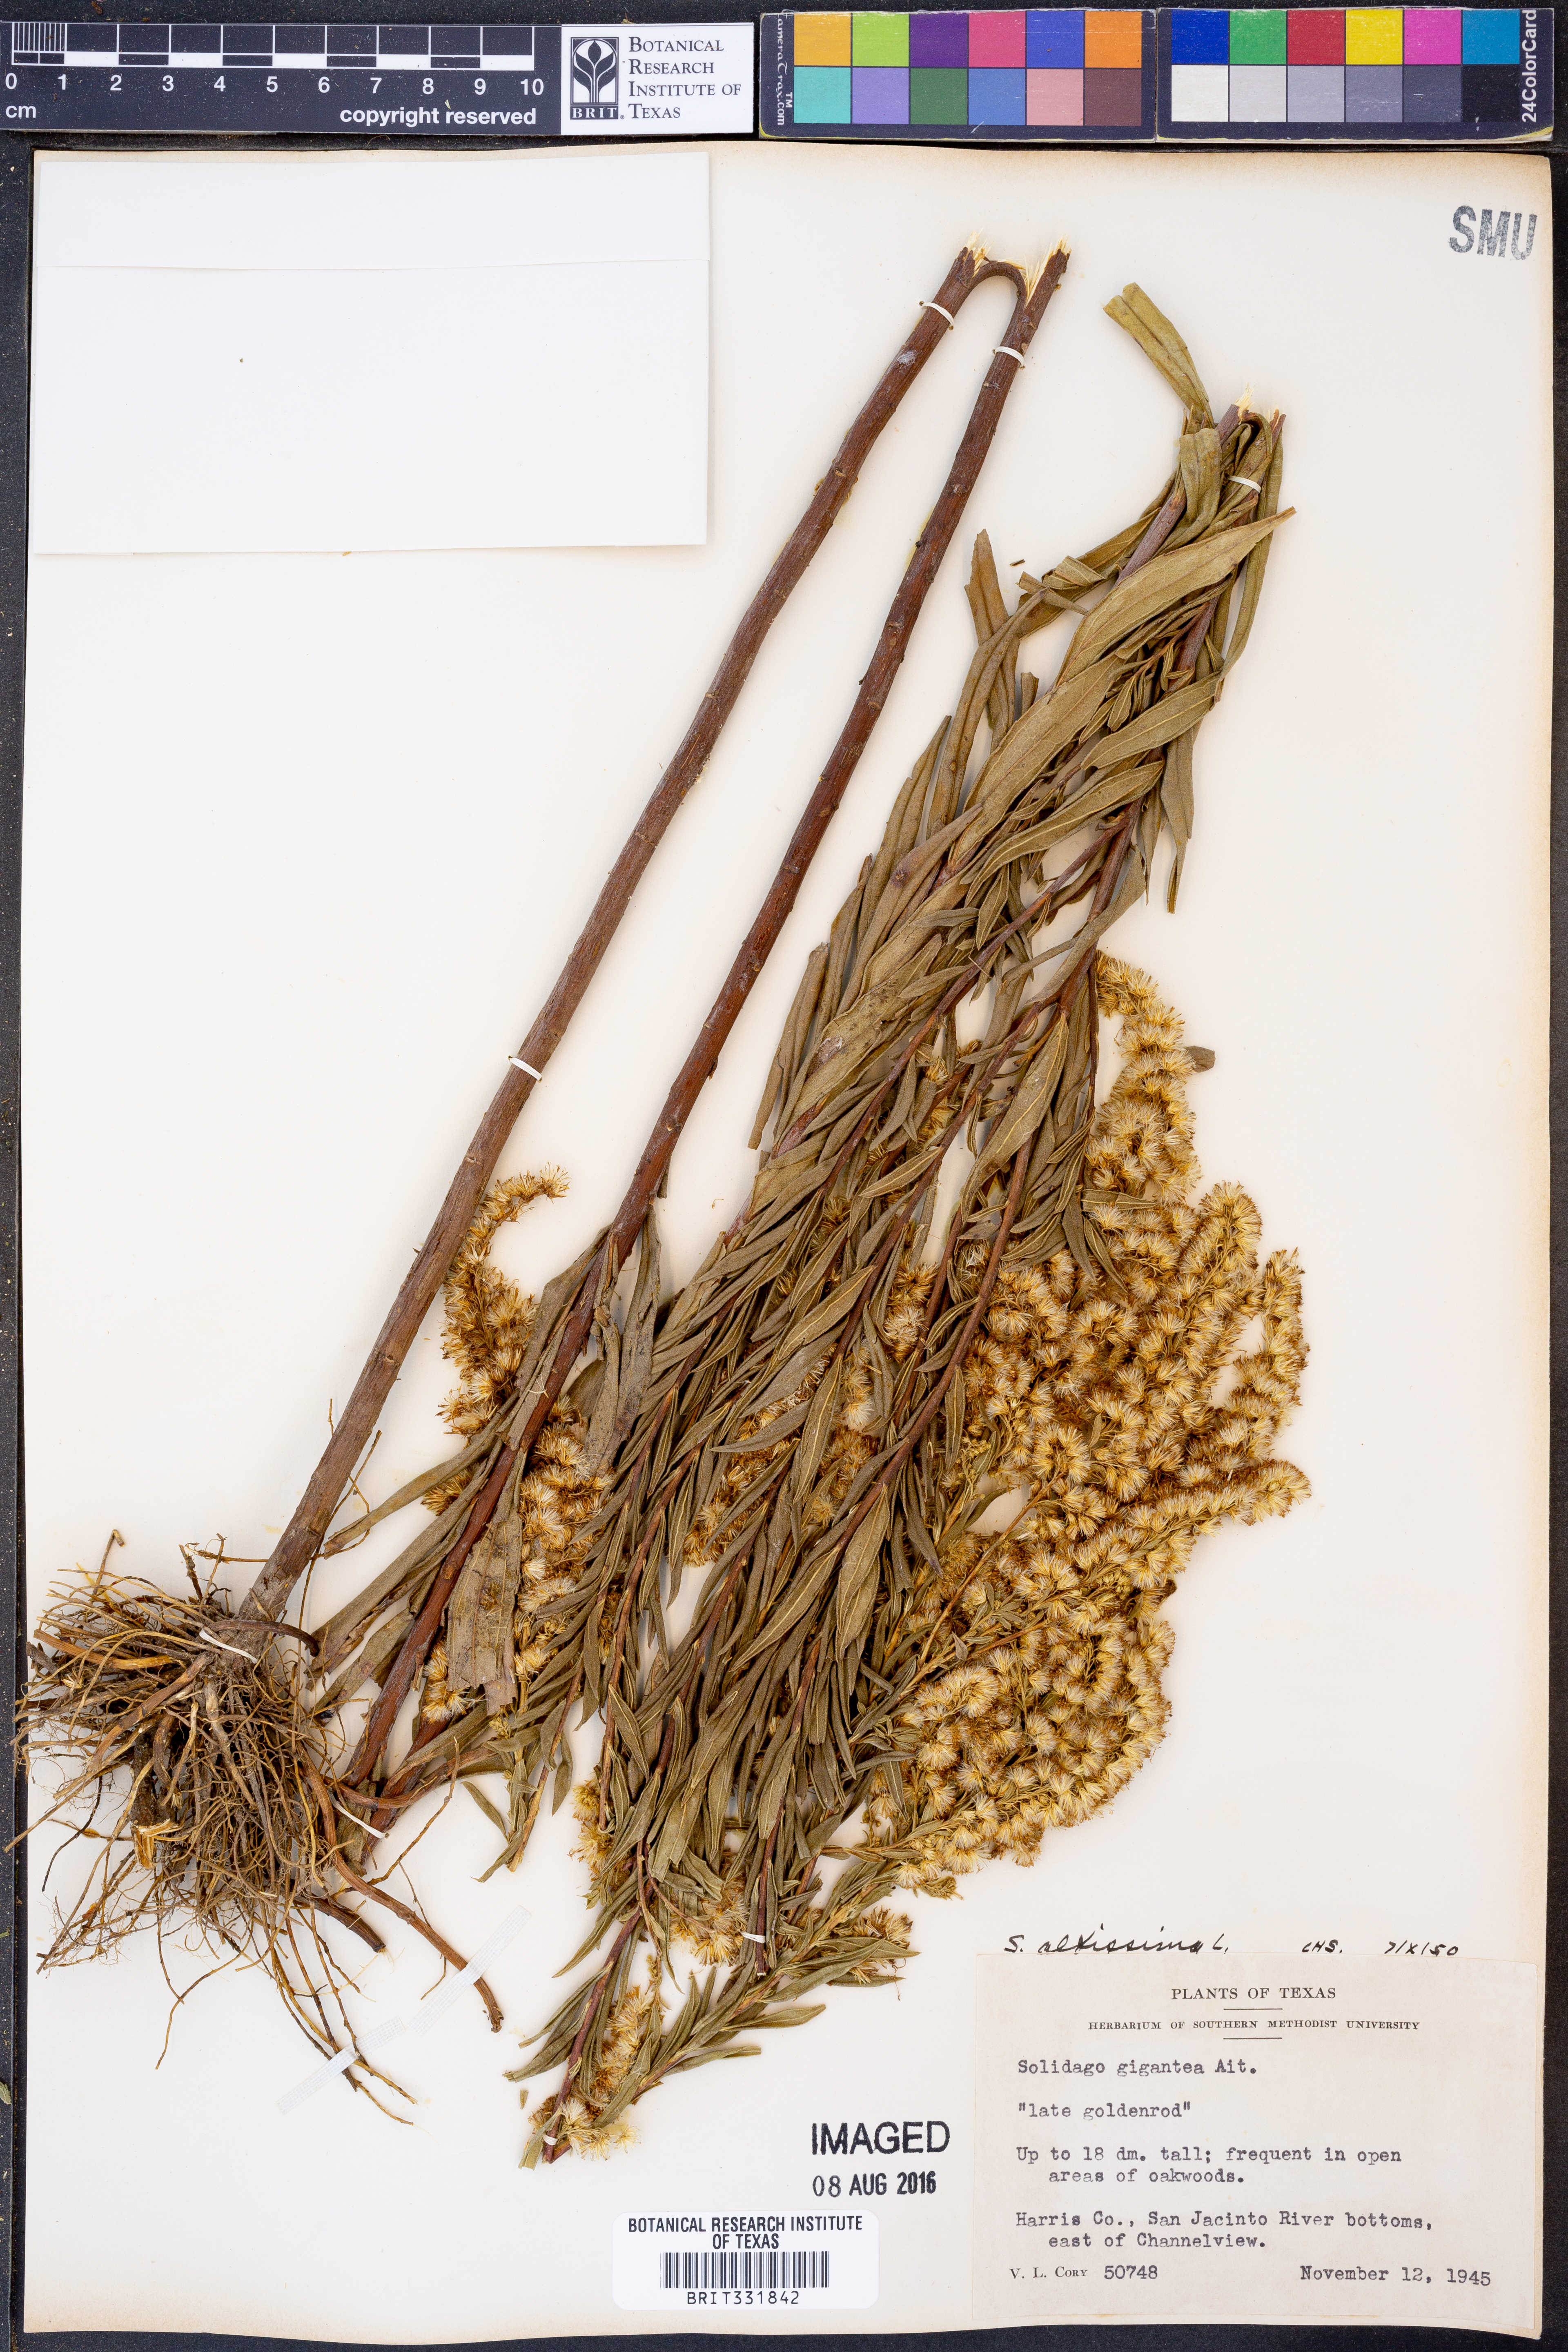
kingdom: Plantae
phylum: Tracheophyta
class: Magnoliopsida
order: Asterales
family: Asteraceae
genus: Solidago
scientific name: Solidago altissima
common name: Late goldenrod
